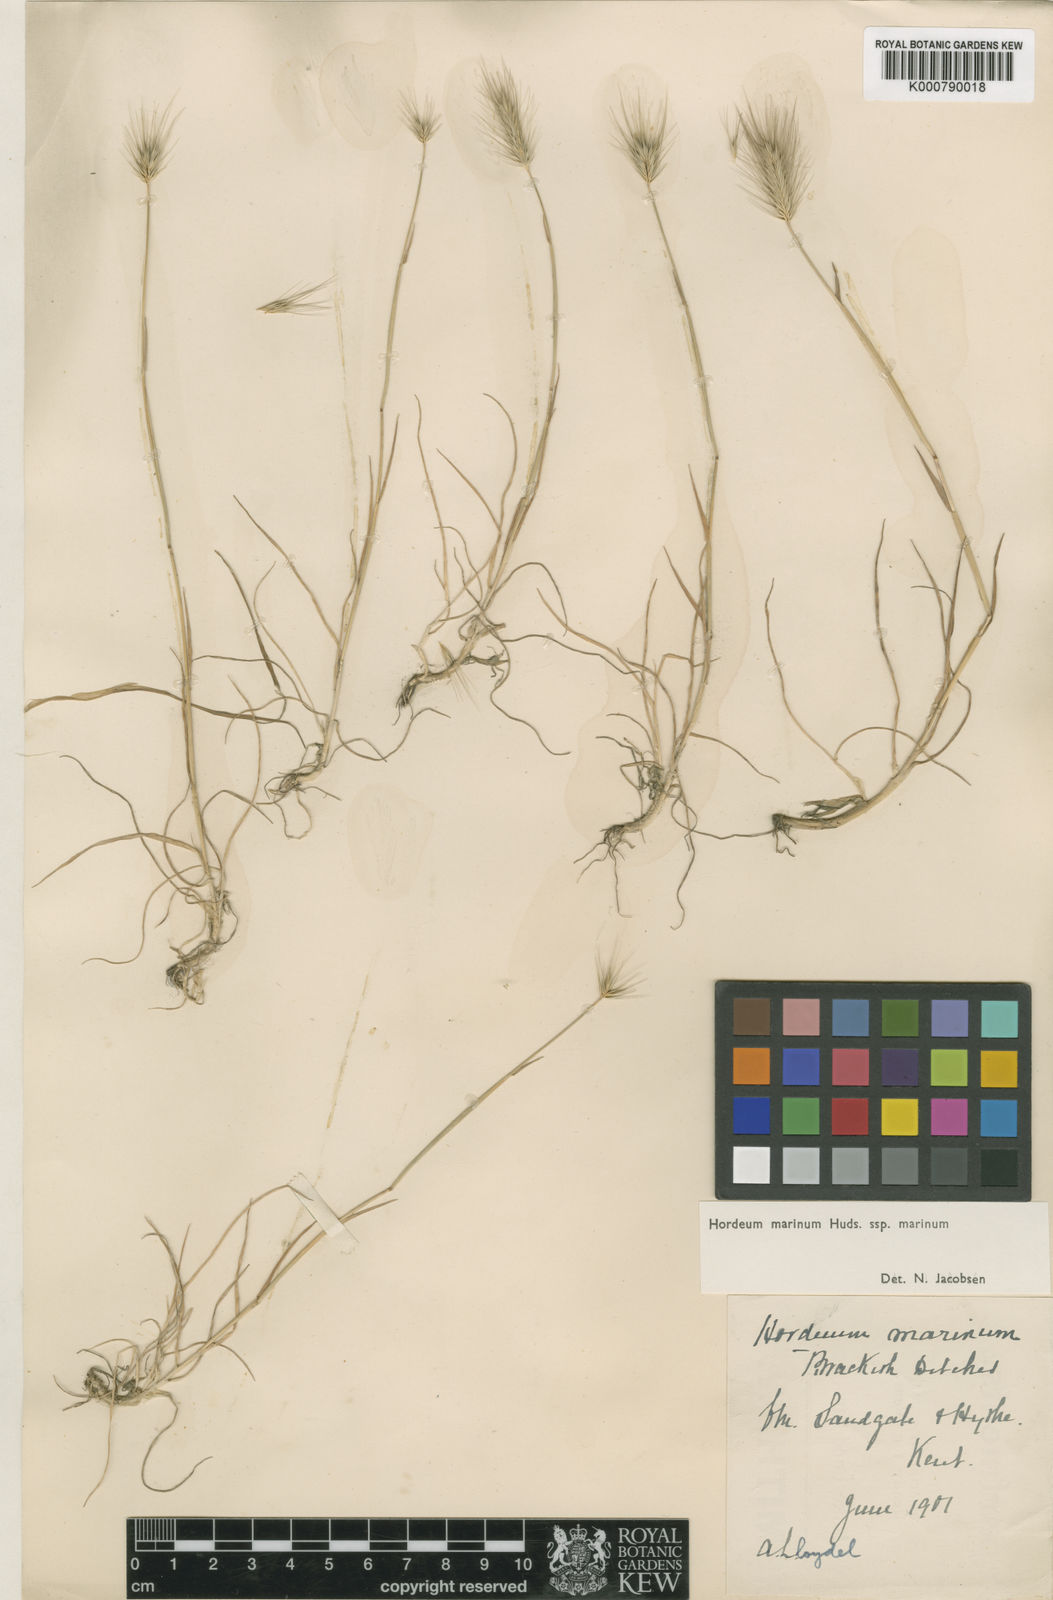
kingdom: Plantae
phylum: Tracheophyta
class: Liliopsida
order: Poales
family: Poaceae
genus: Hordeum
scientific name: Hordeum marinum
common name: Sea barley
